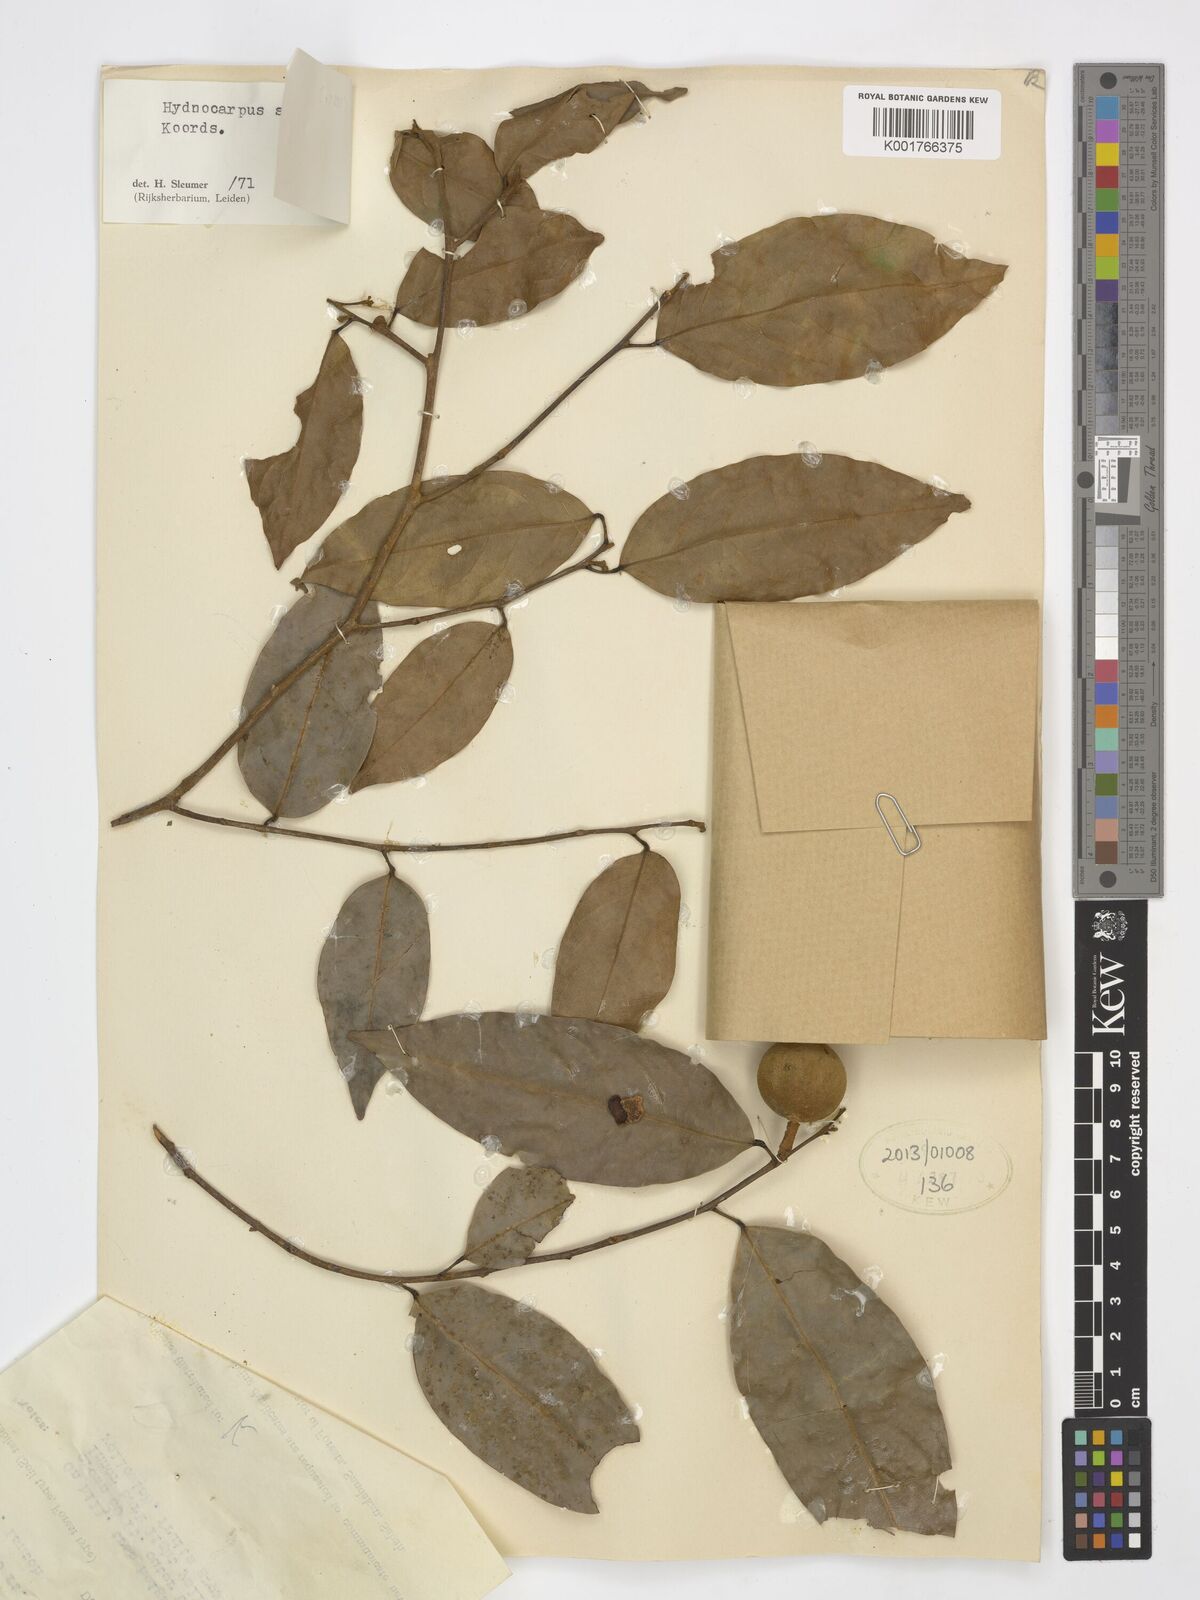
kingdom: Plantae
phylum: Tracheophyta
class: Magnoliopsida
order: Malpighiales
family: Achariaceae
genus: Hydnocarpus
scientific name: Hydnocarpus sumatranus
